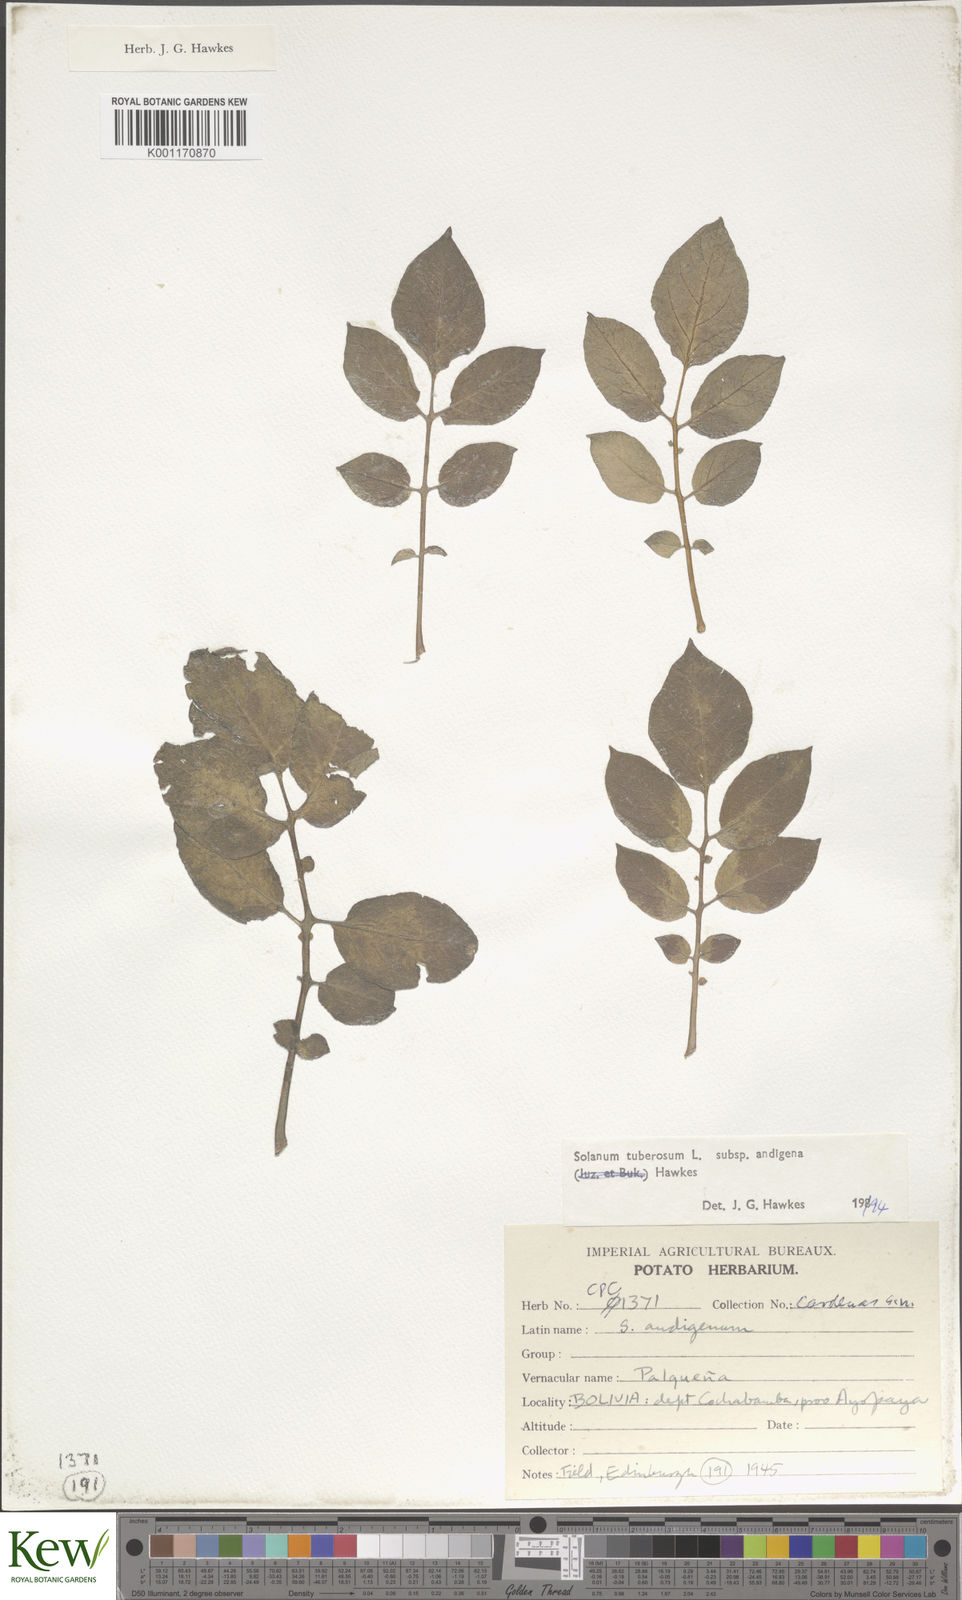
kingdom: Plantae
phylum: Tracheophyta
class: Magnoliopsida
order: Solanales
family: Solanaceae
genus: Solanum
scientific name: Solanum tuberosum
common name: Potato
